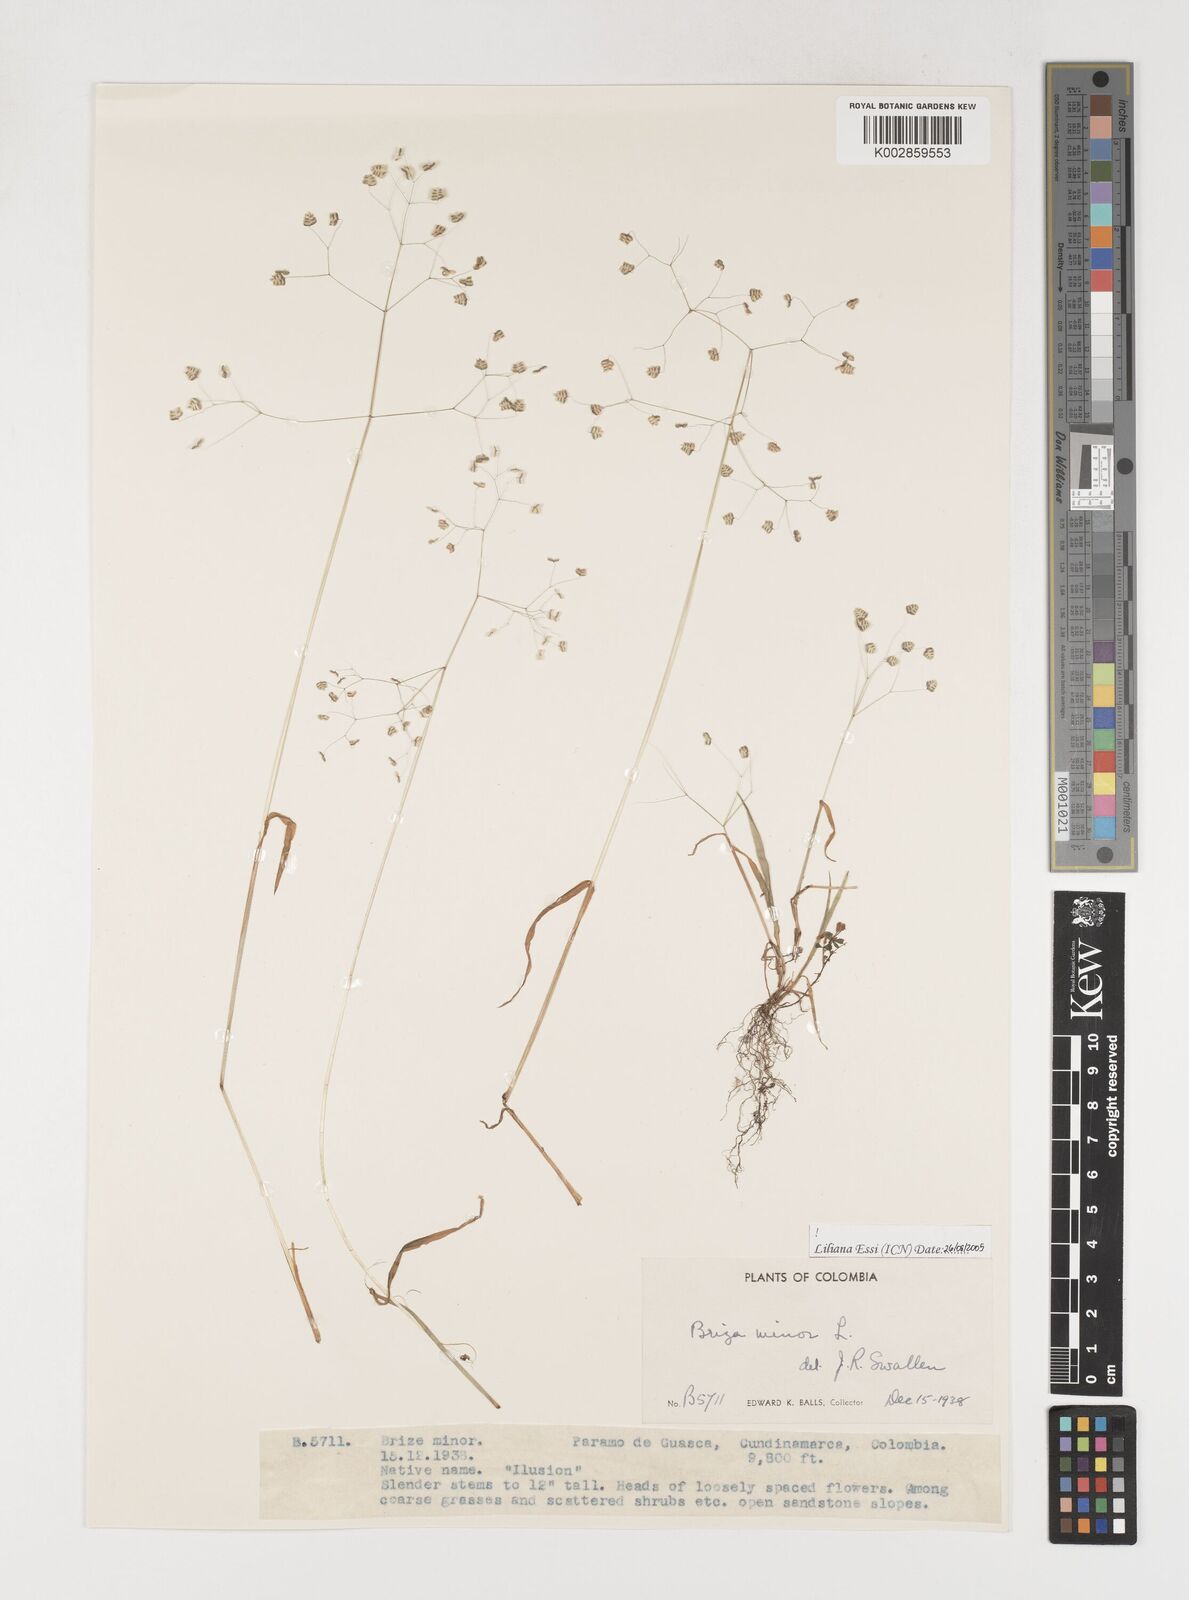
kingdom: Plantae
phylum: Tracheophyta
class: Liliopsida
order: Poales
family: Poaceae
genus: Briza
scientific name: Briza minor
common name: Lesser quaking-grass
